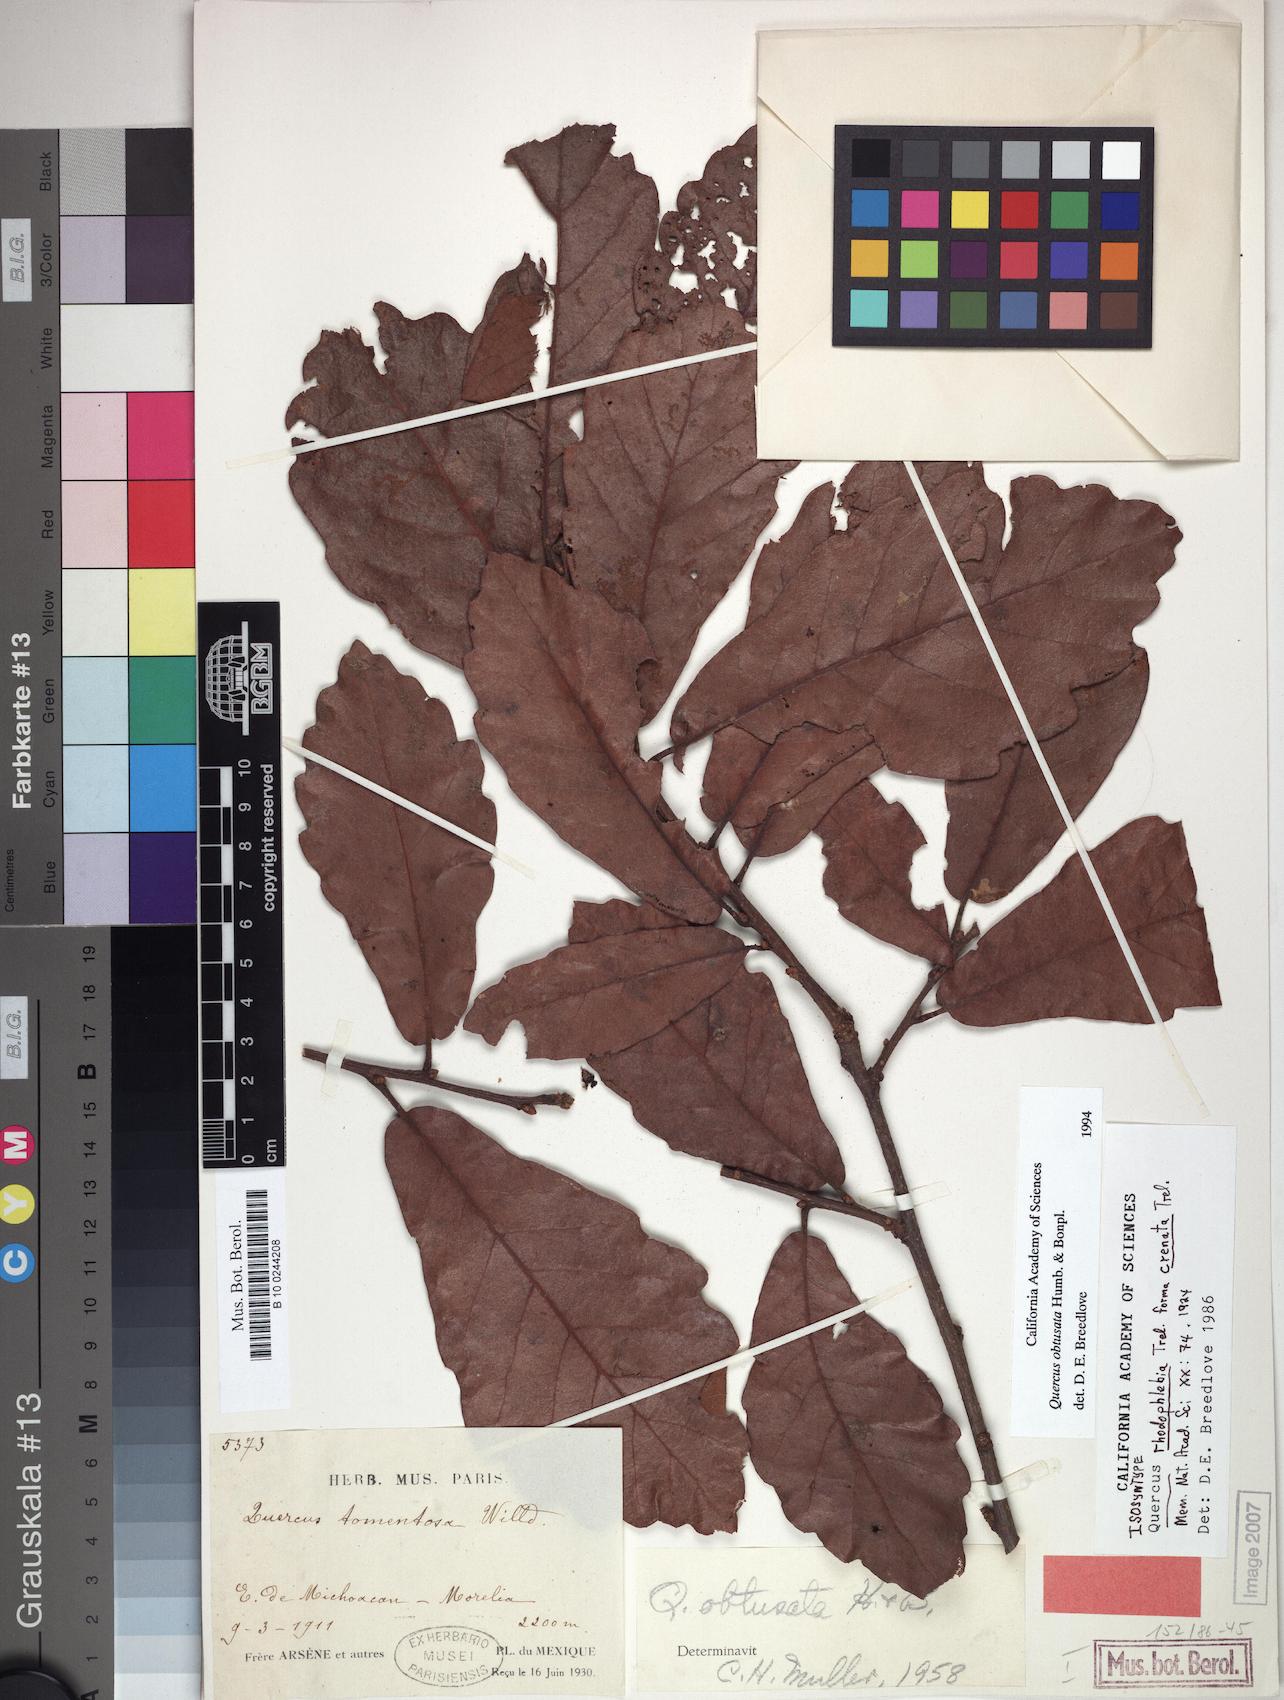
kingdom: Plantae
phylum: Tracheophyta
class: Magnoliopsida
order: Fagales
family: Fagaceae
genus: Quercus
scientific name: Quercus obtusata
